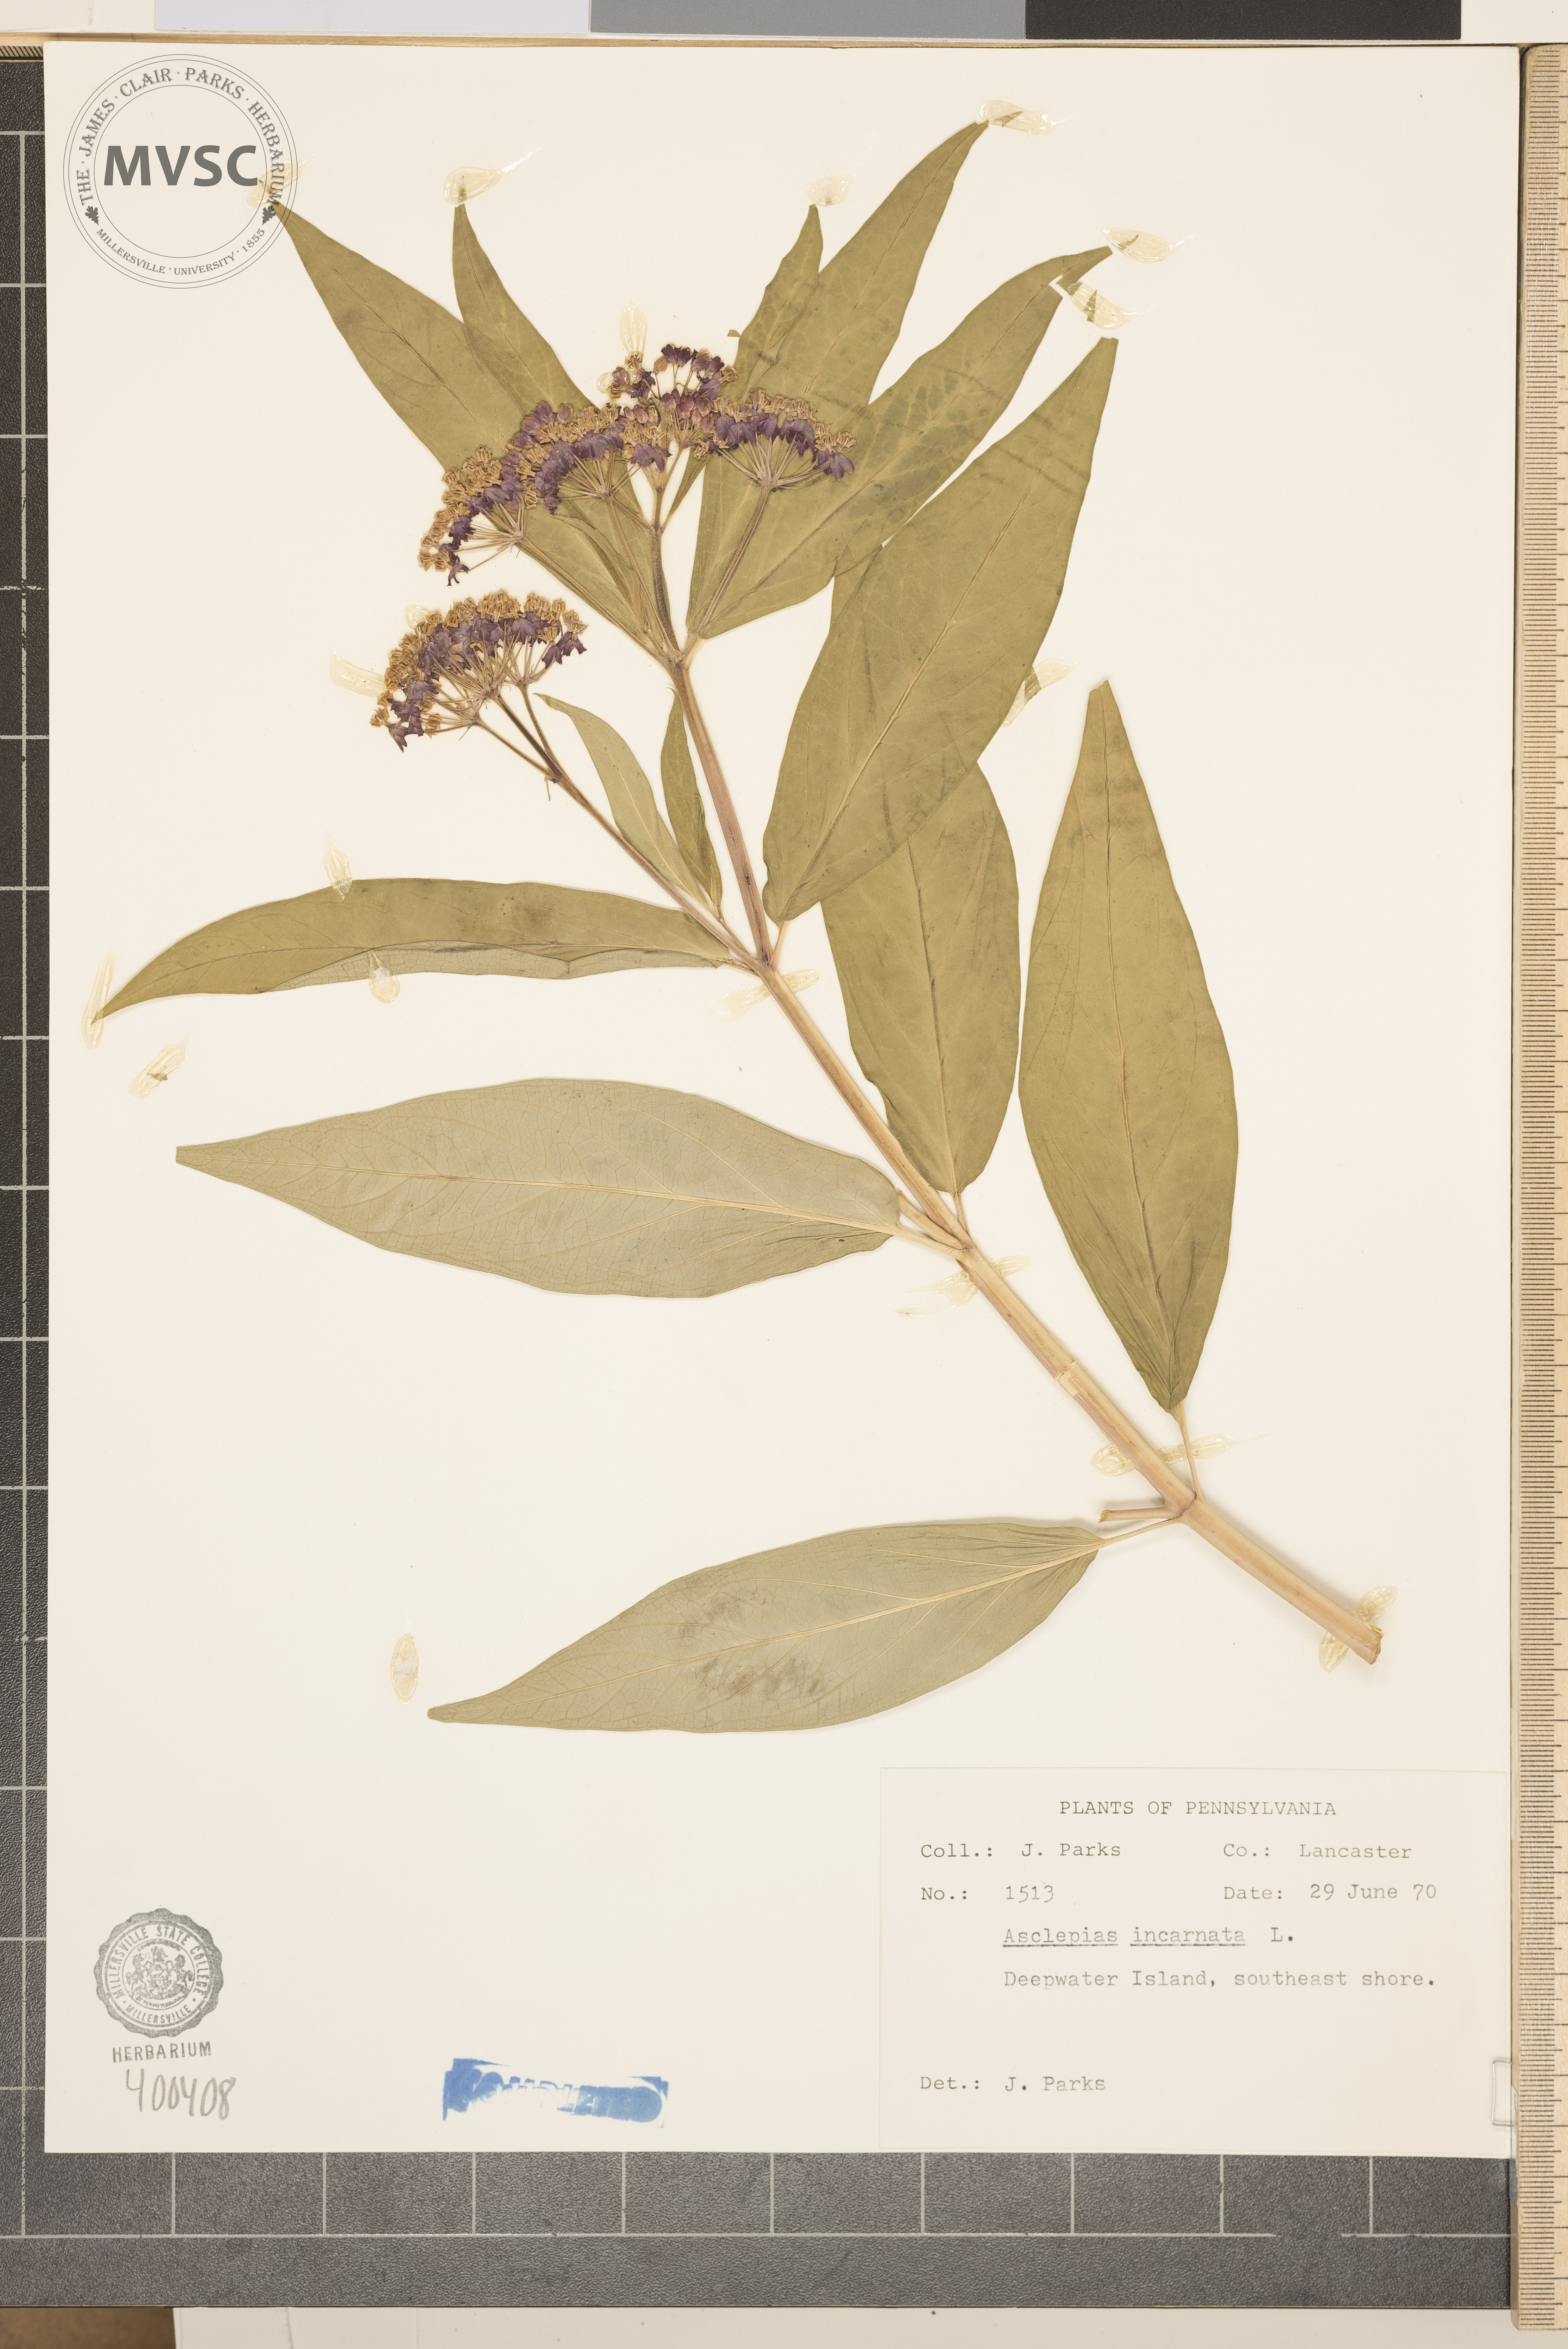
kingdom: Plantae
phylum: Tracheophyta
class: Magnoliopsida
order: Gentianales
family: Apocynaceae
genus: Asclepias
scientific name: Asclepias incarnata
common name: milkweed
